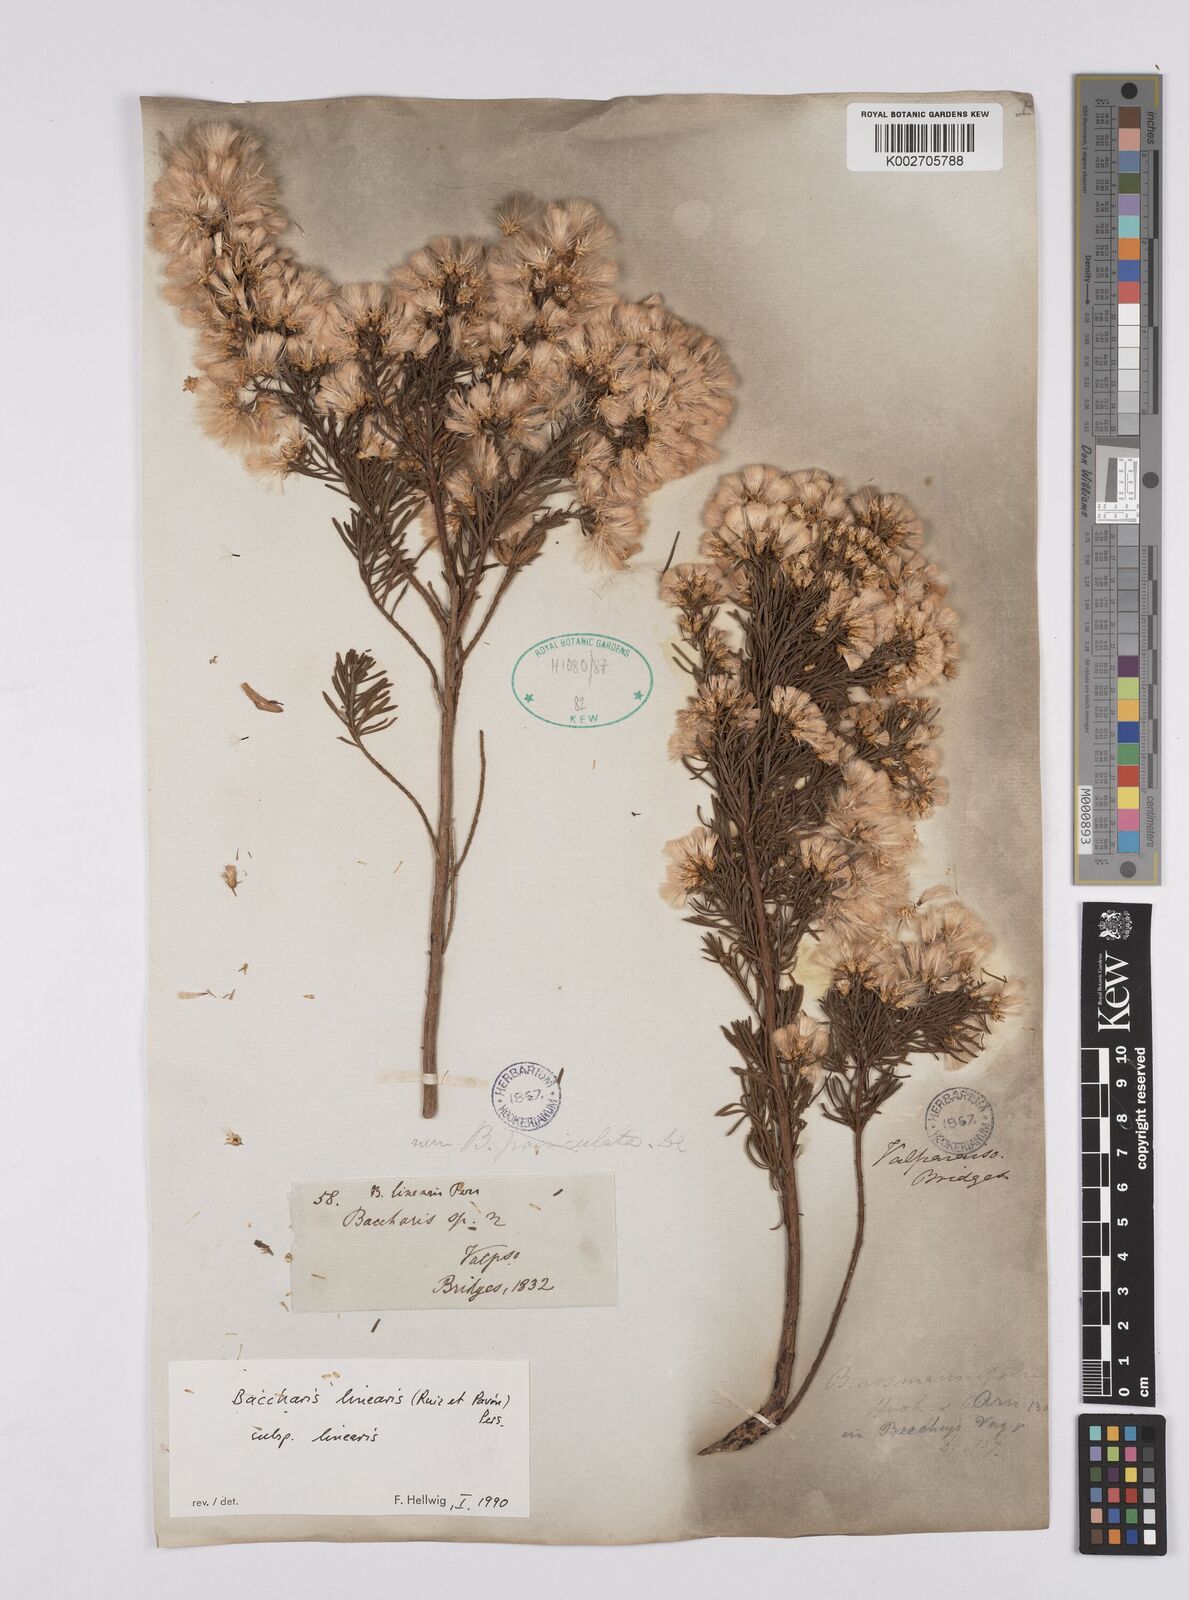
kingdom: Plantae
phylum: Tracheophyta
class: Magnoliopsida
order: Asterales
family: Asteraceae
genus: Baccharis
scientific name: Baccharis linearis
